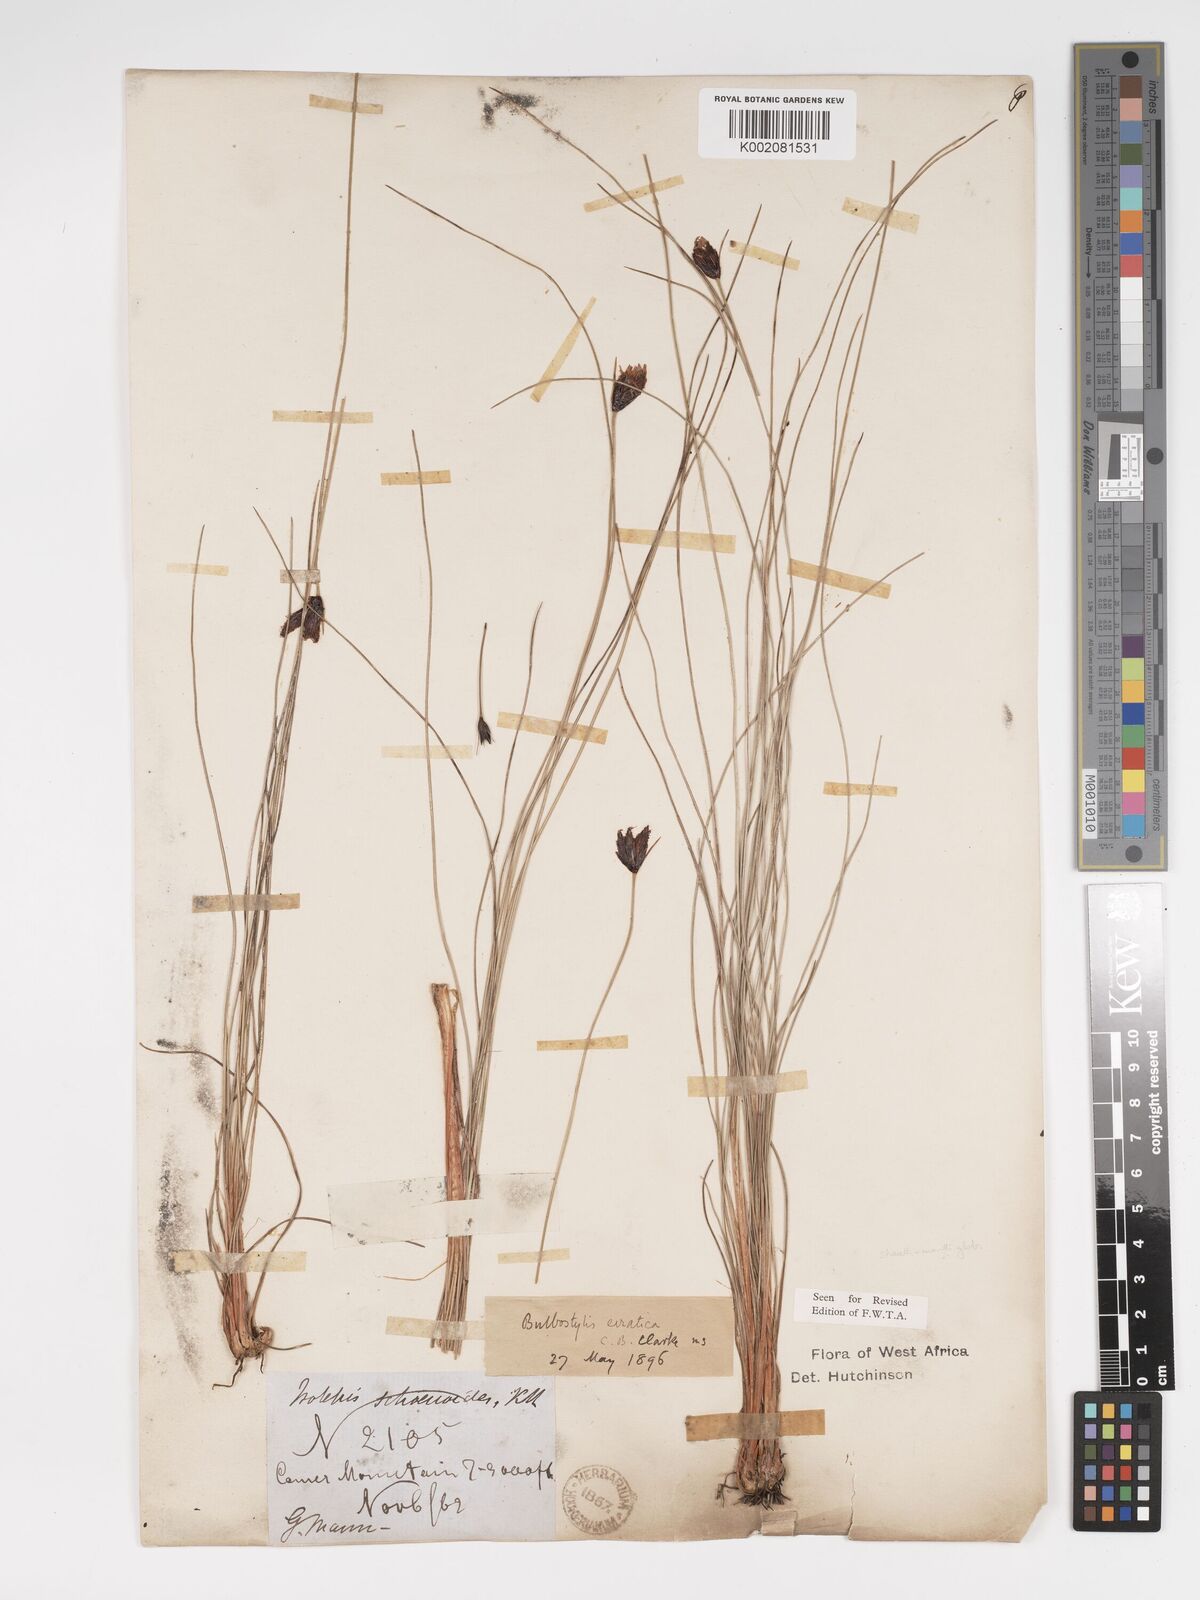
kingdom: Plantae
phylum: Tracheophyta
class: Liliopsida
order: Poales
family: Cyperaceae
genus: Bulbostylis
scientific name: Bulbostylis schoenoides
